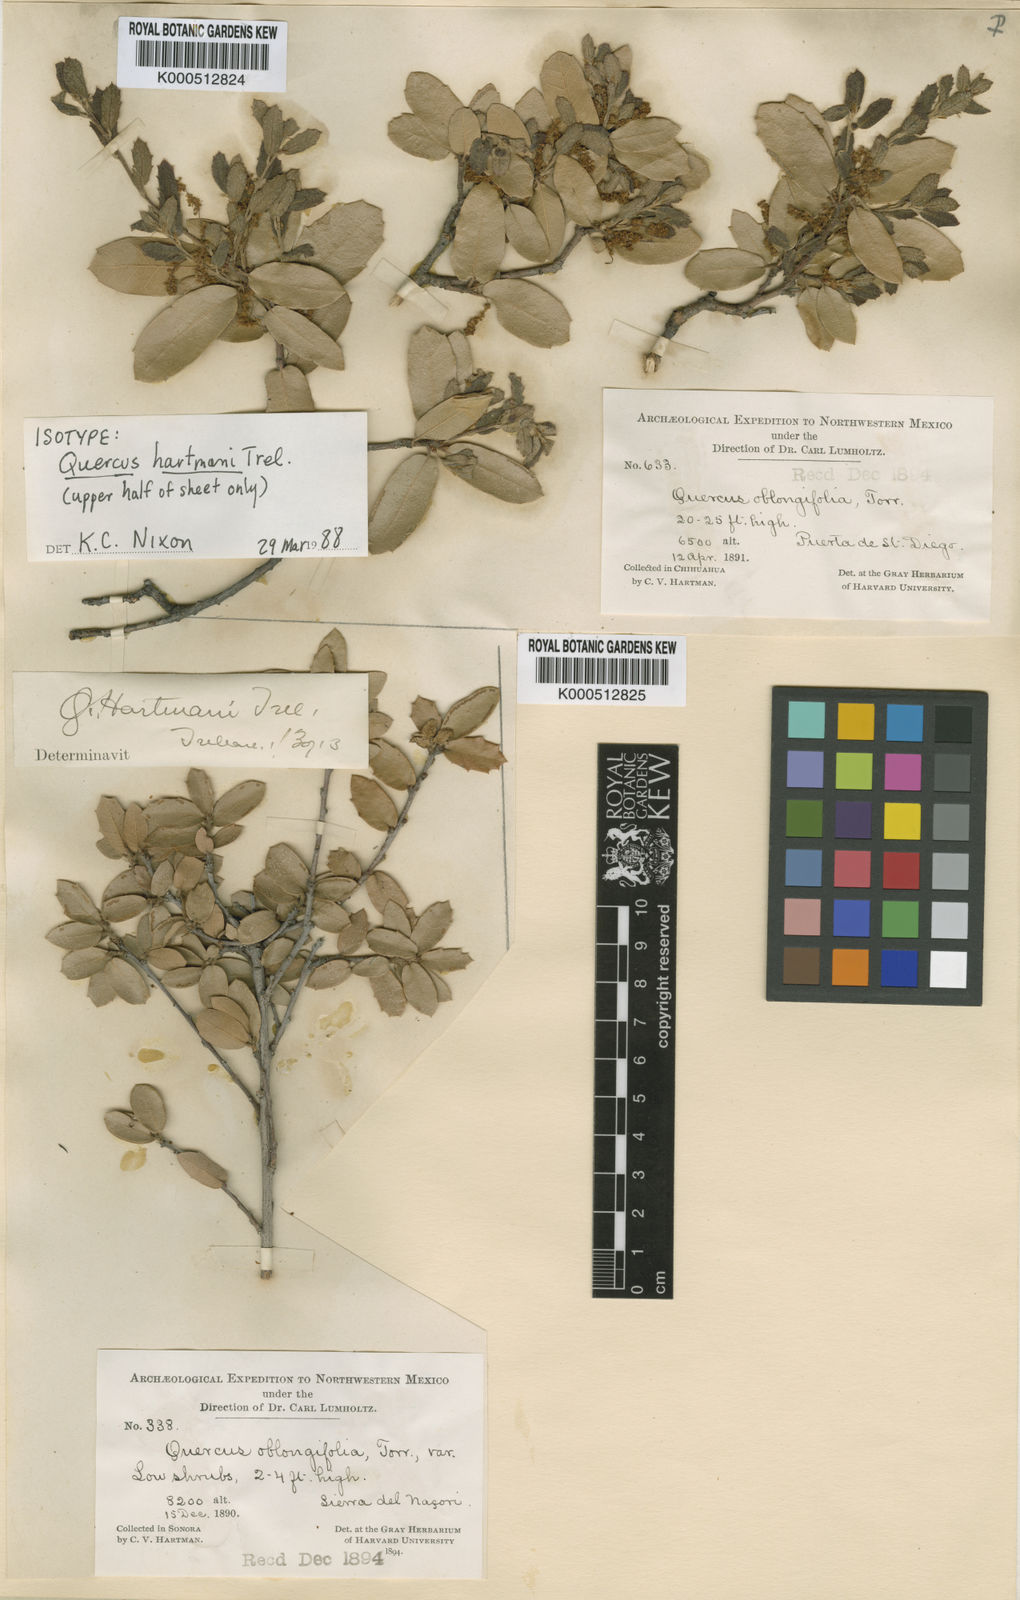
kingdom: Plantae
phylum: Tracheophyta
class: Magnoliopsida
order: Fagales
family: Fagaceae
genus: Quercus
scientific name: Quercus toumeyi
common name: Toumey oak
